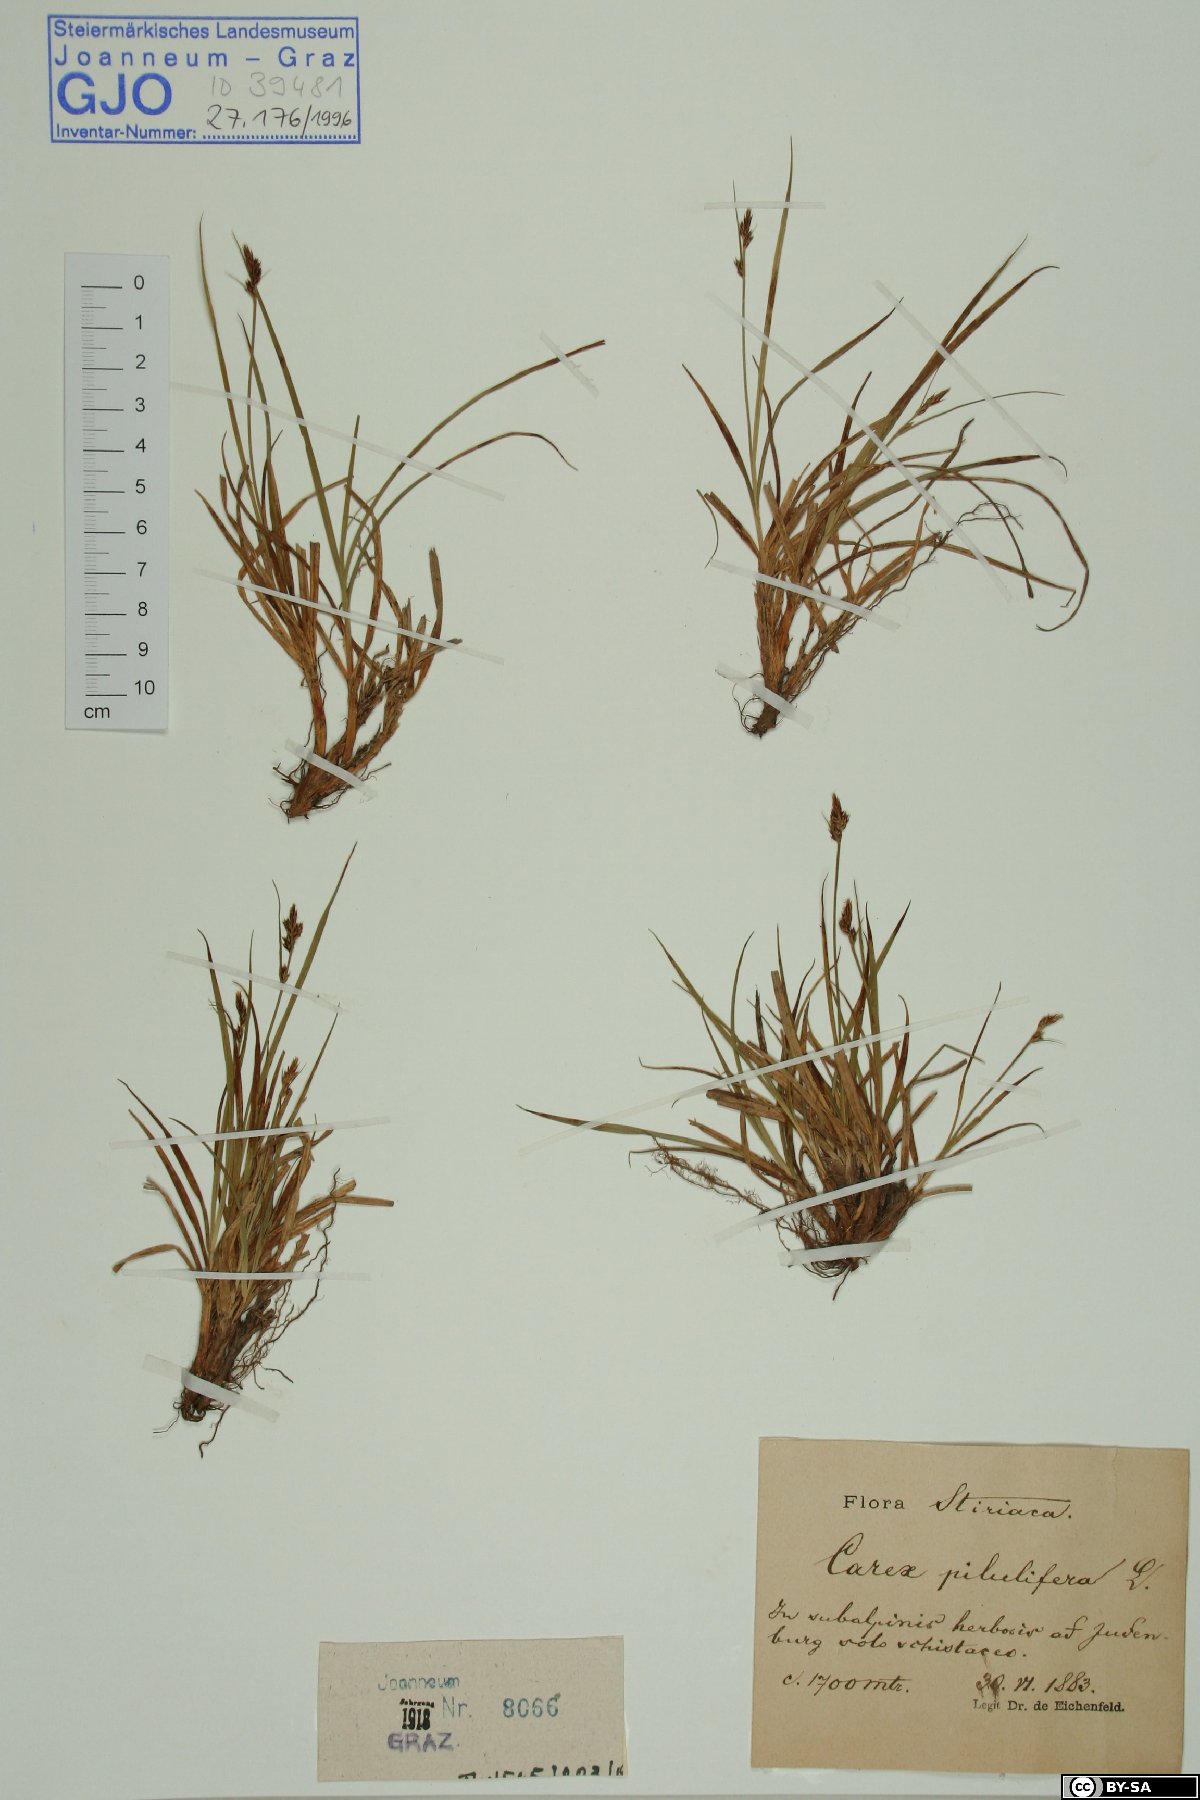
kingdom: Plantae
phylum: Tracheophyta
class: Liliopsida
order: Poales
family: Cyperaceae
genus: Carex
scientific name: Carex pilulifera
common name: Pill sedge
